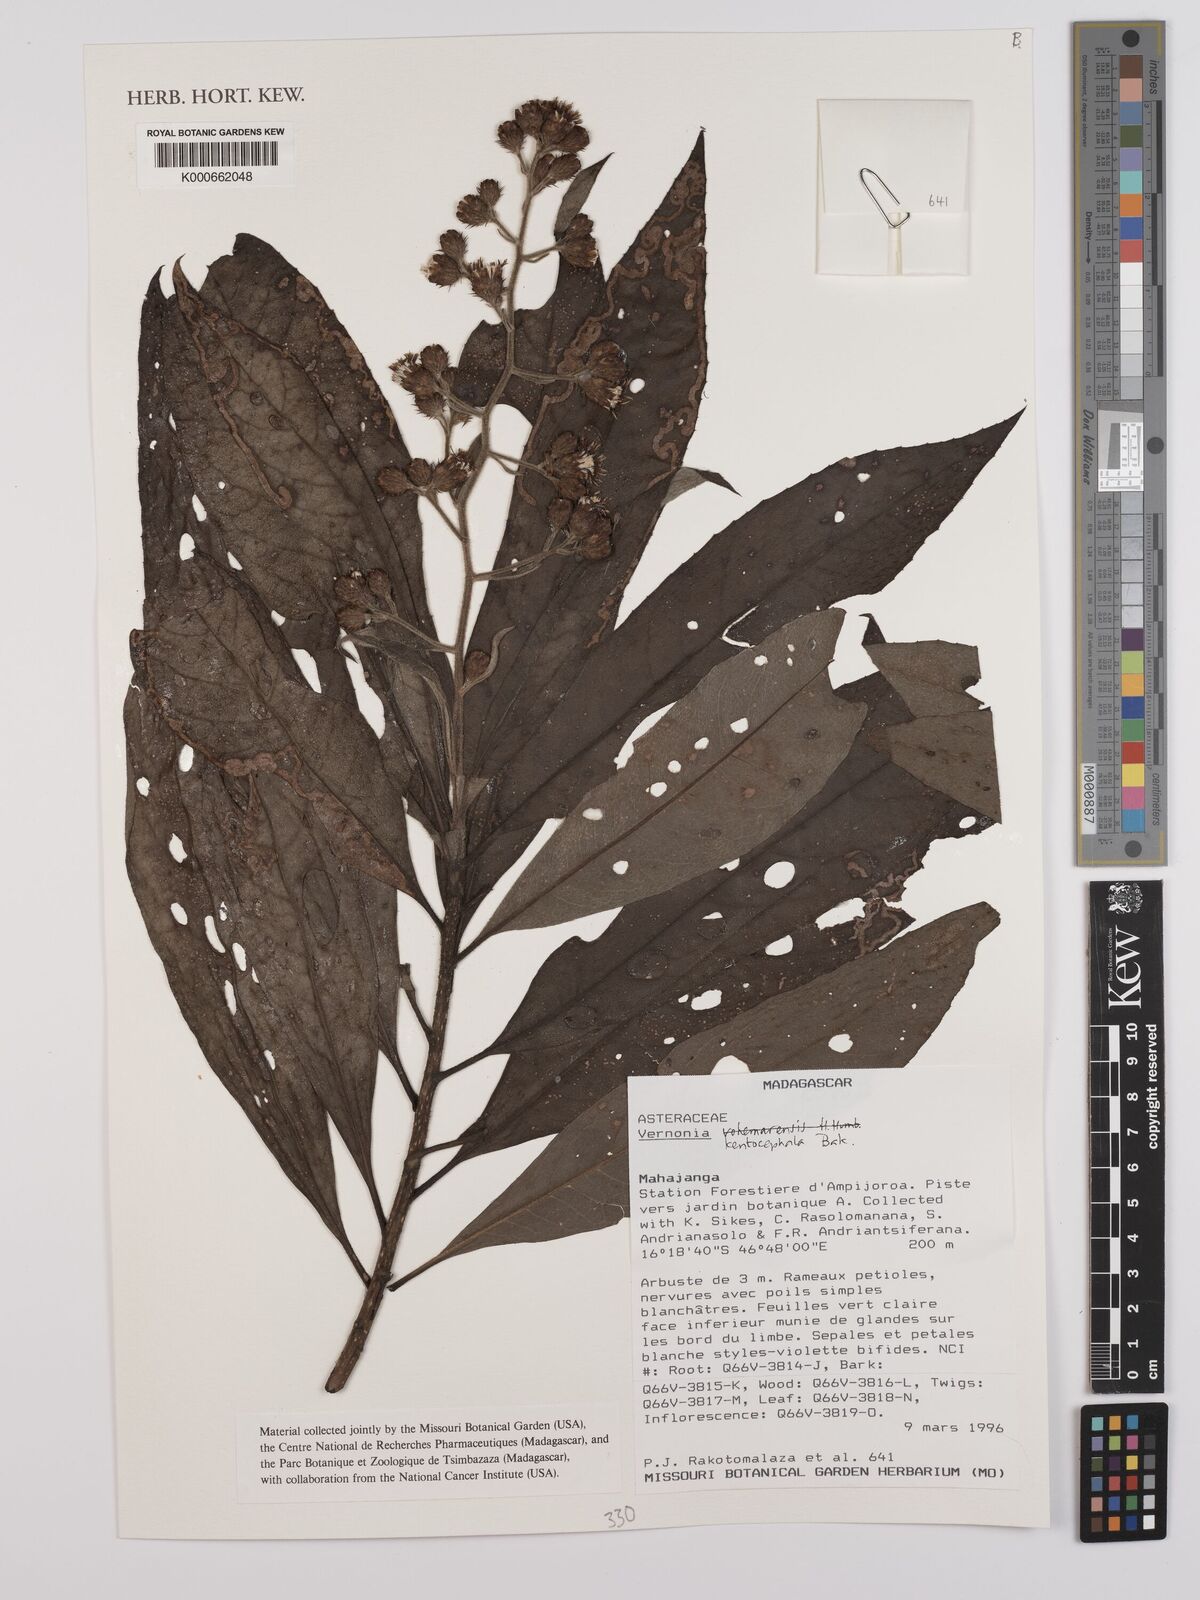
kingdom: Plantae
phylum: Tracheophyta
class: Magnoliopsida
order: Asterales
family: Asteraceae
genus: Vernonia
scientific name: Vernonia kenteocephala
